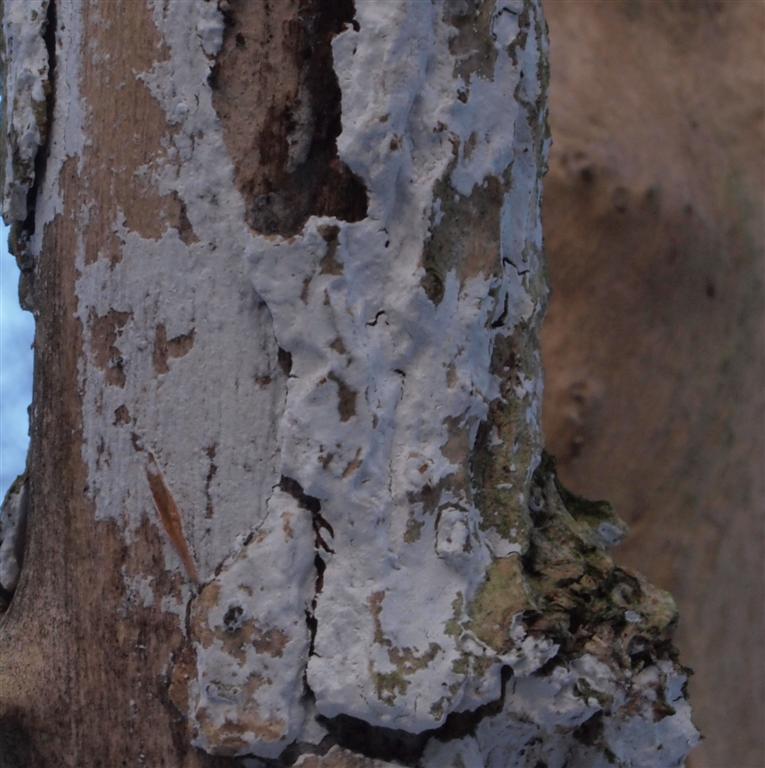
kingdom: Fungi
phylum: Basidiomycota
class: Agaricomycetes
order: Corticiales
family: Corticiaceae
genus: Lyomyces
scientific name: Lyomyces sambuci
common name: almindelig hyldehinde
